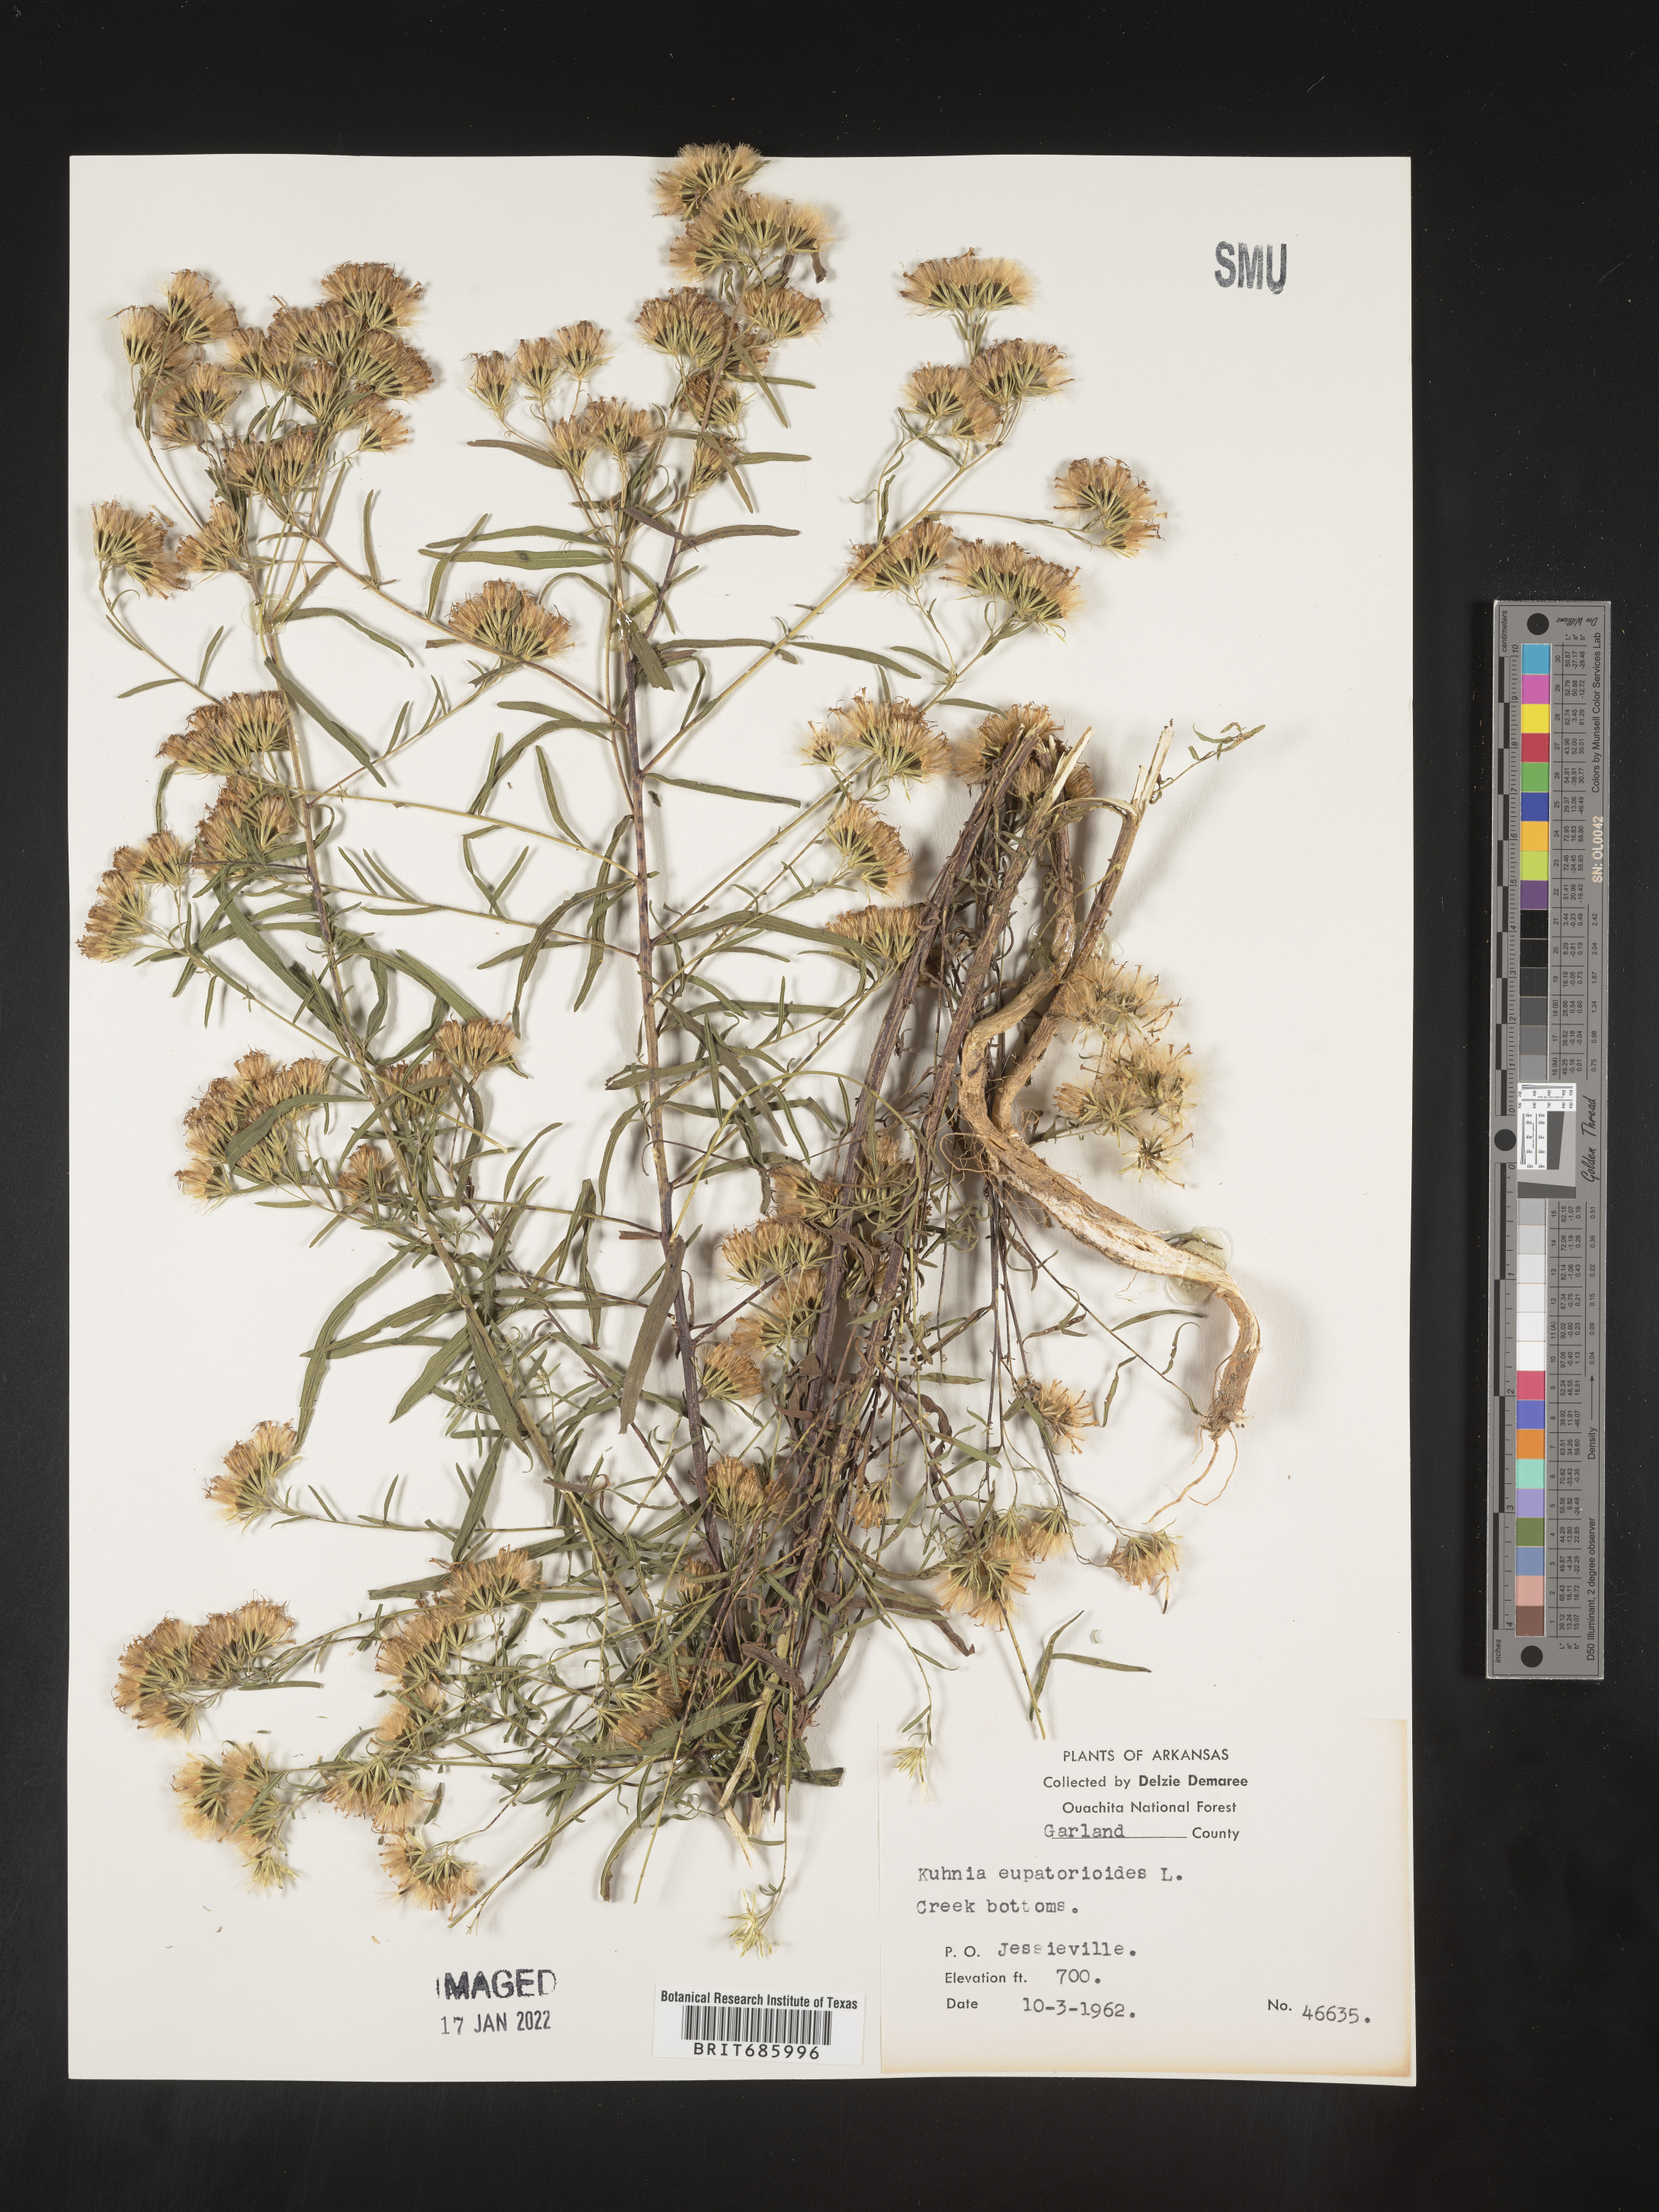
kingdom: Plantae
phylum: Tracheophyta
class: Magnoliopsida
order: Asterales
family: Asteraceae
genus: Brickellia
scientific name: Brickellia eupatorioides
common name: False boneset
